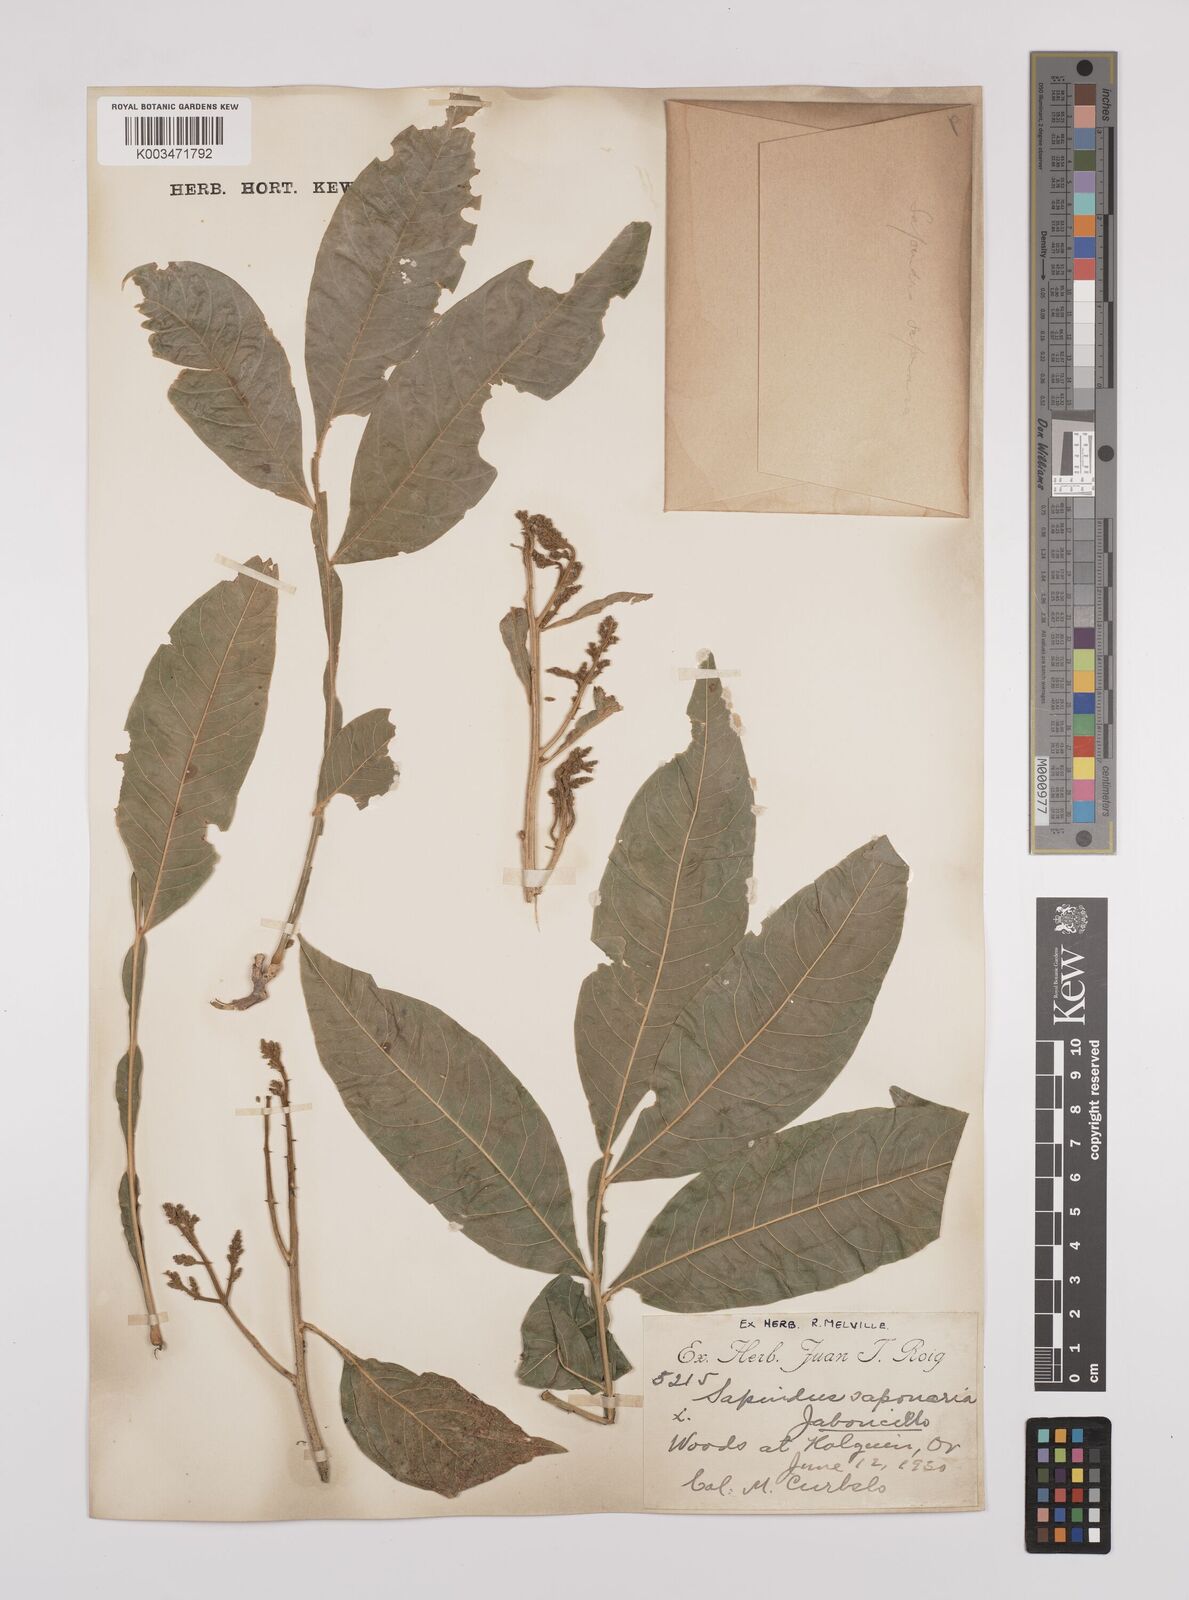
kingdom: Plantae
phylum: Tracheophyta
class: Magnoliopsida
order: Sapindales
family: Sapindaceae
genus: Sapindus
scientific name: Sapindus saponaria
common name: Wingleaf soapberry
